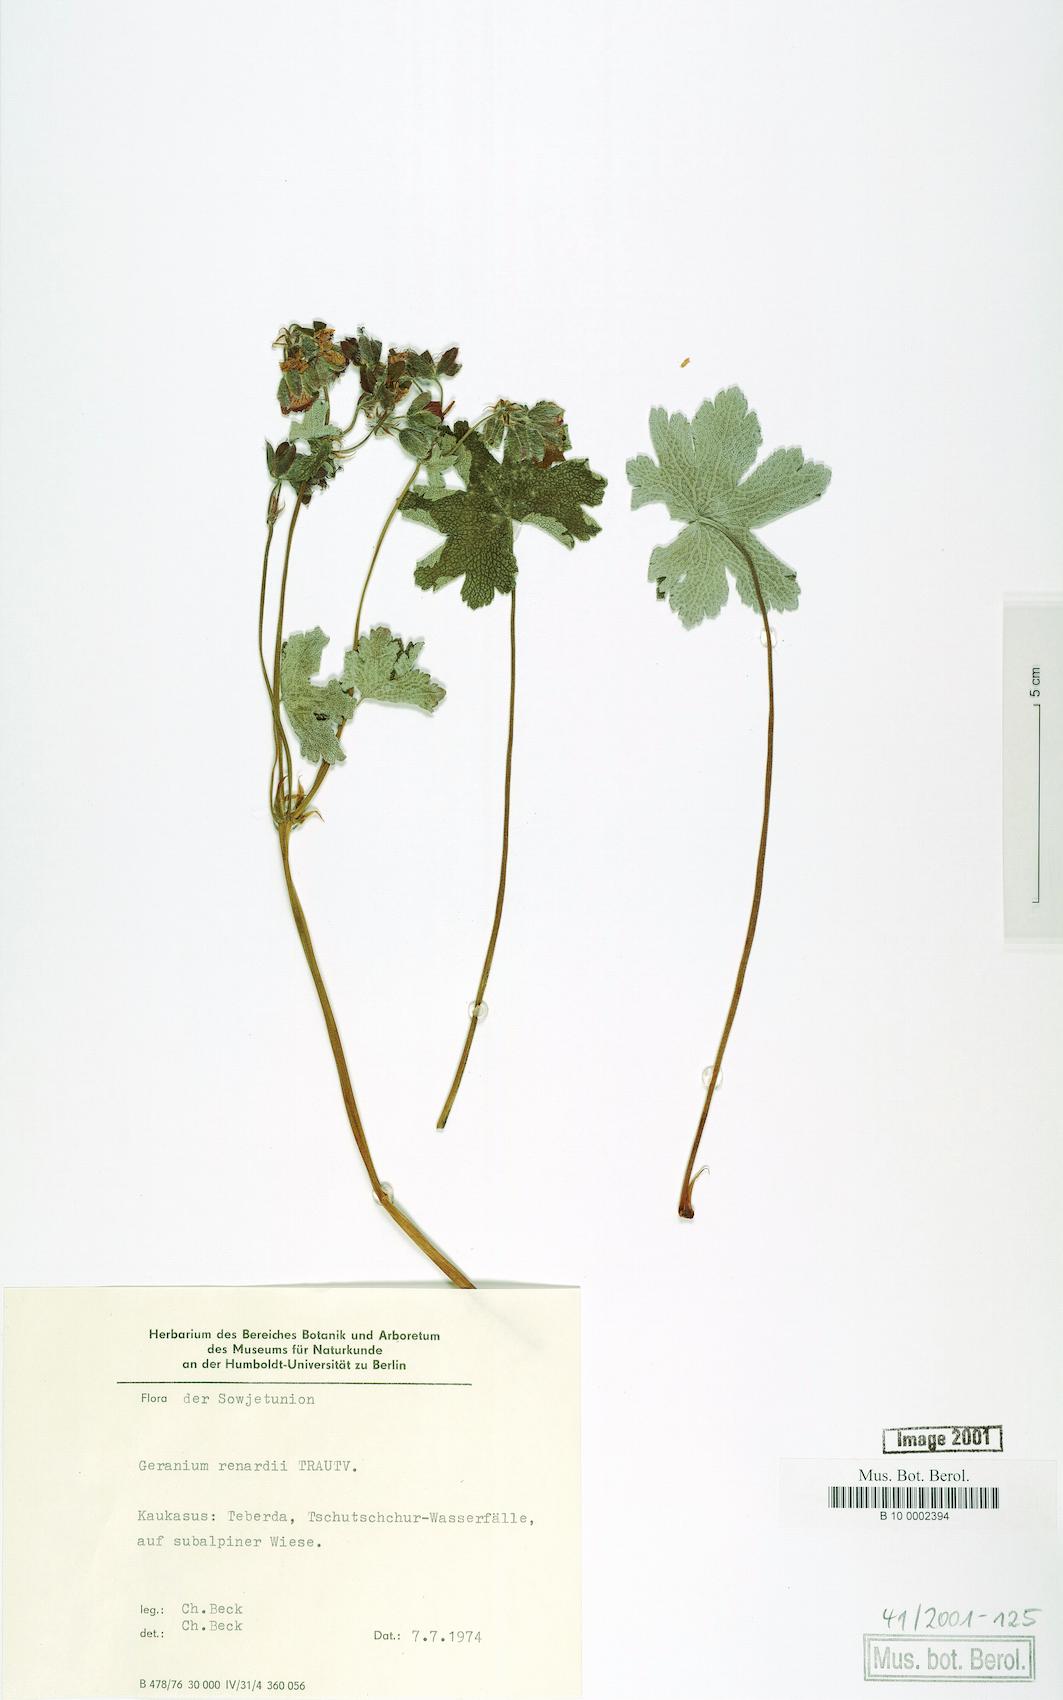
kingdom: Plantae
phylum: Tracheophyta
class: Magnoliopsida
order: Geraniales
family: Geraniaceae
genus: Geranium
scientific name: Geranium renardii
